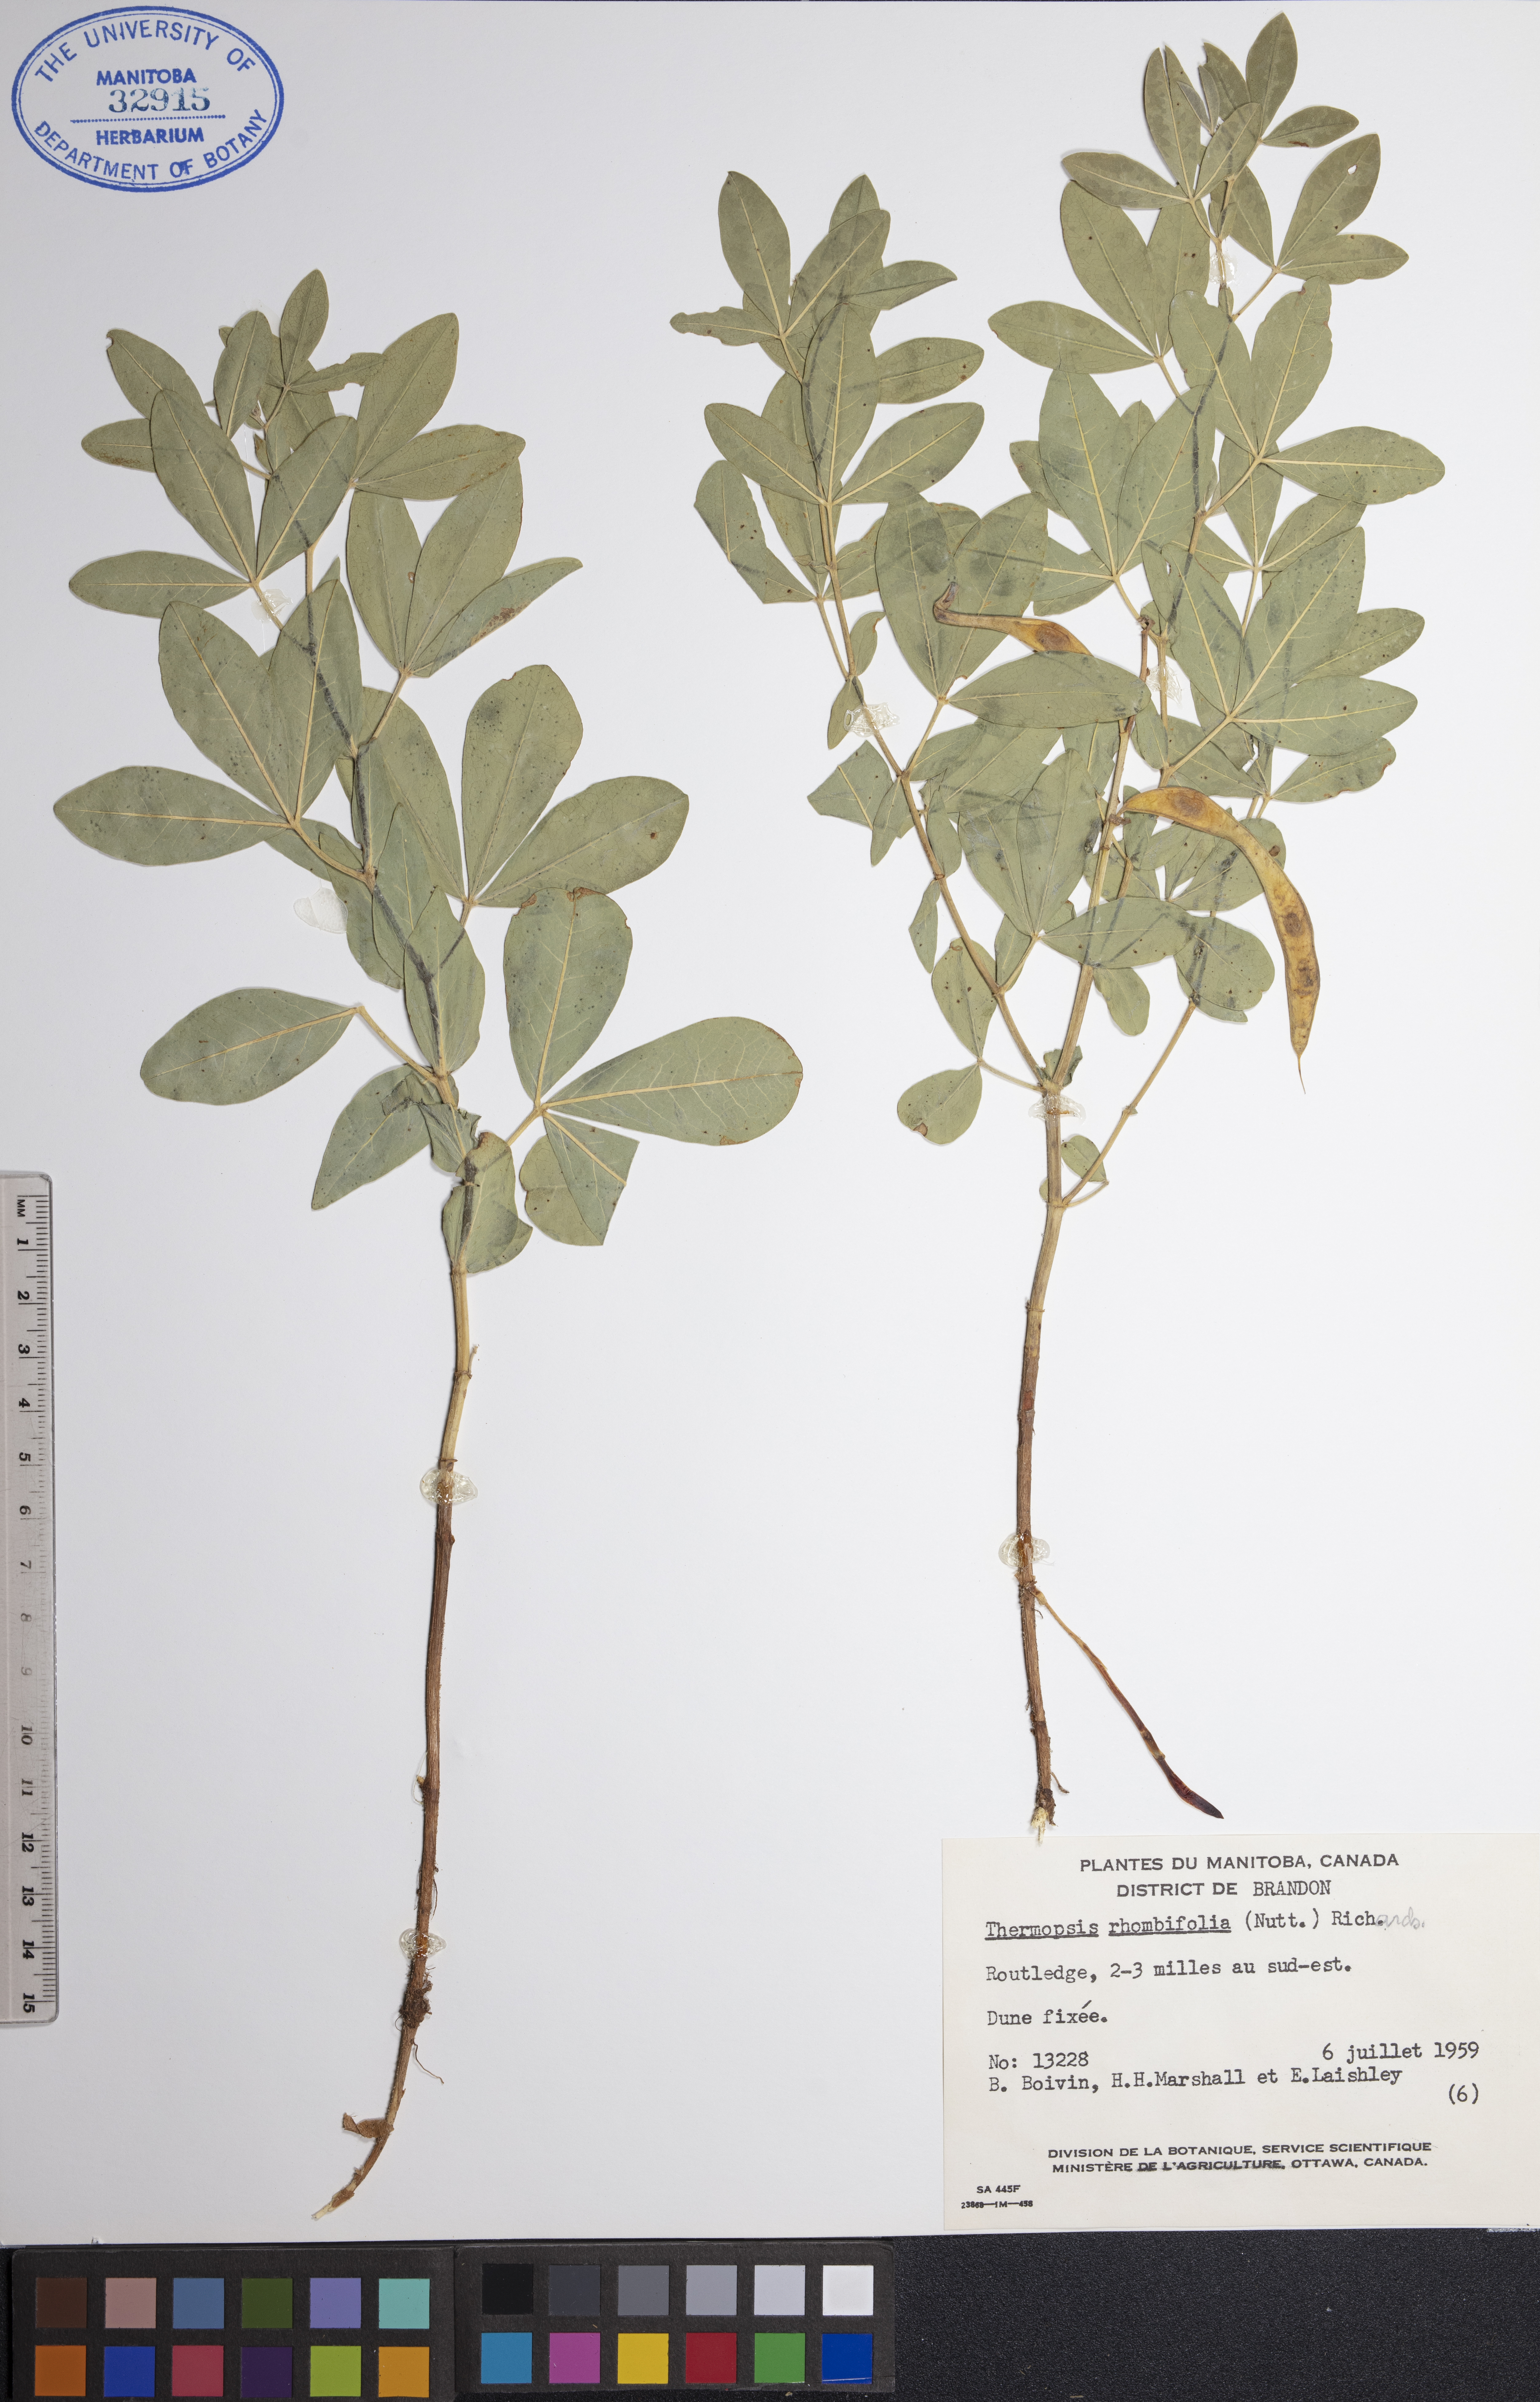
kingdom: Plantae
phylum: Tracheophyta
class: Magnoliopsida
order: Fabales
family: Fabaceae
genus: Thermopsis
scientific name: Thermopsis rhombifolia
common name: Circle-pod-pea
